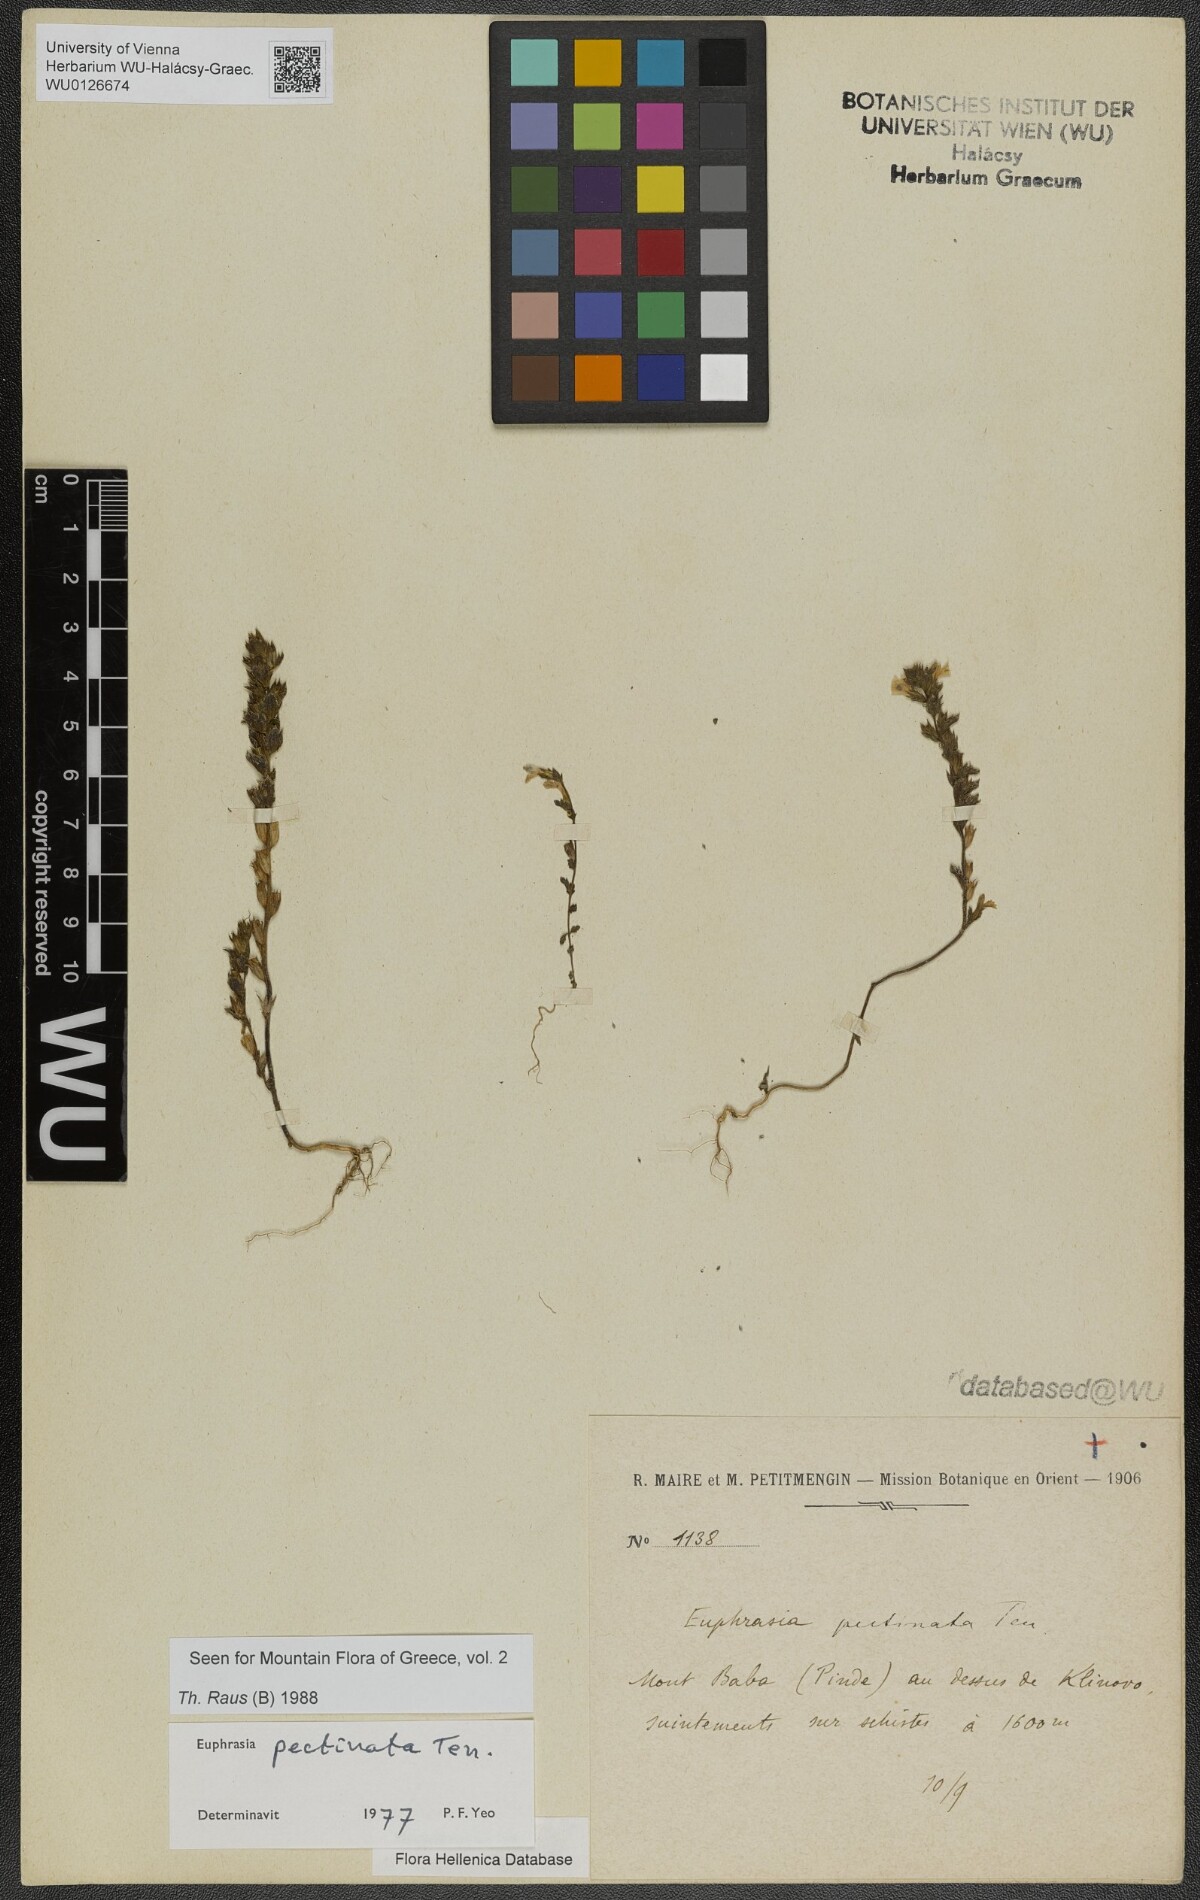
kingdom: Plantae
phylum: Tracheophyta
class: Magnoliopsida
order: Lamiales
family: Orobanchaceae
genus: Euphrasia
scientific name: Euphrasia pectinata
